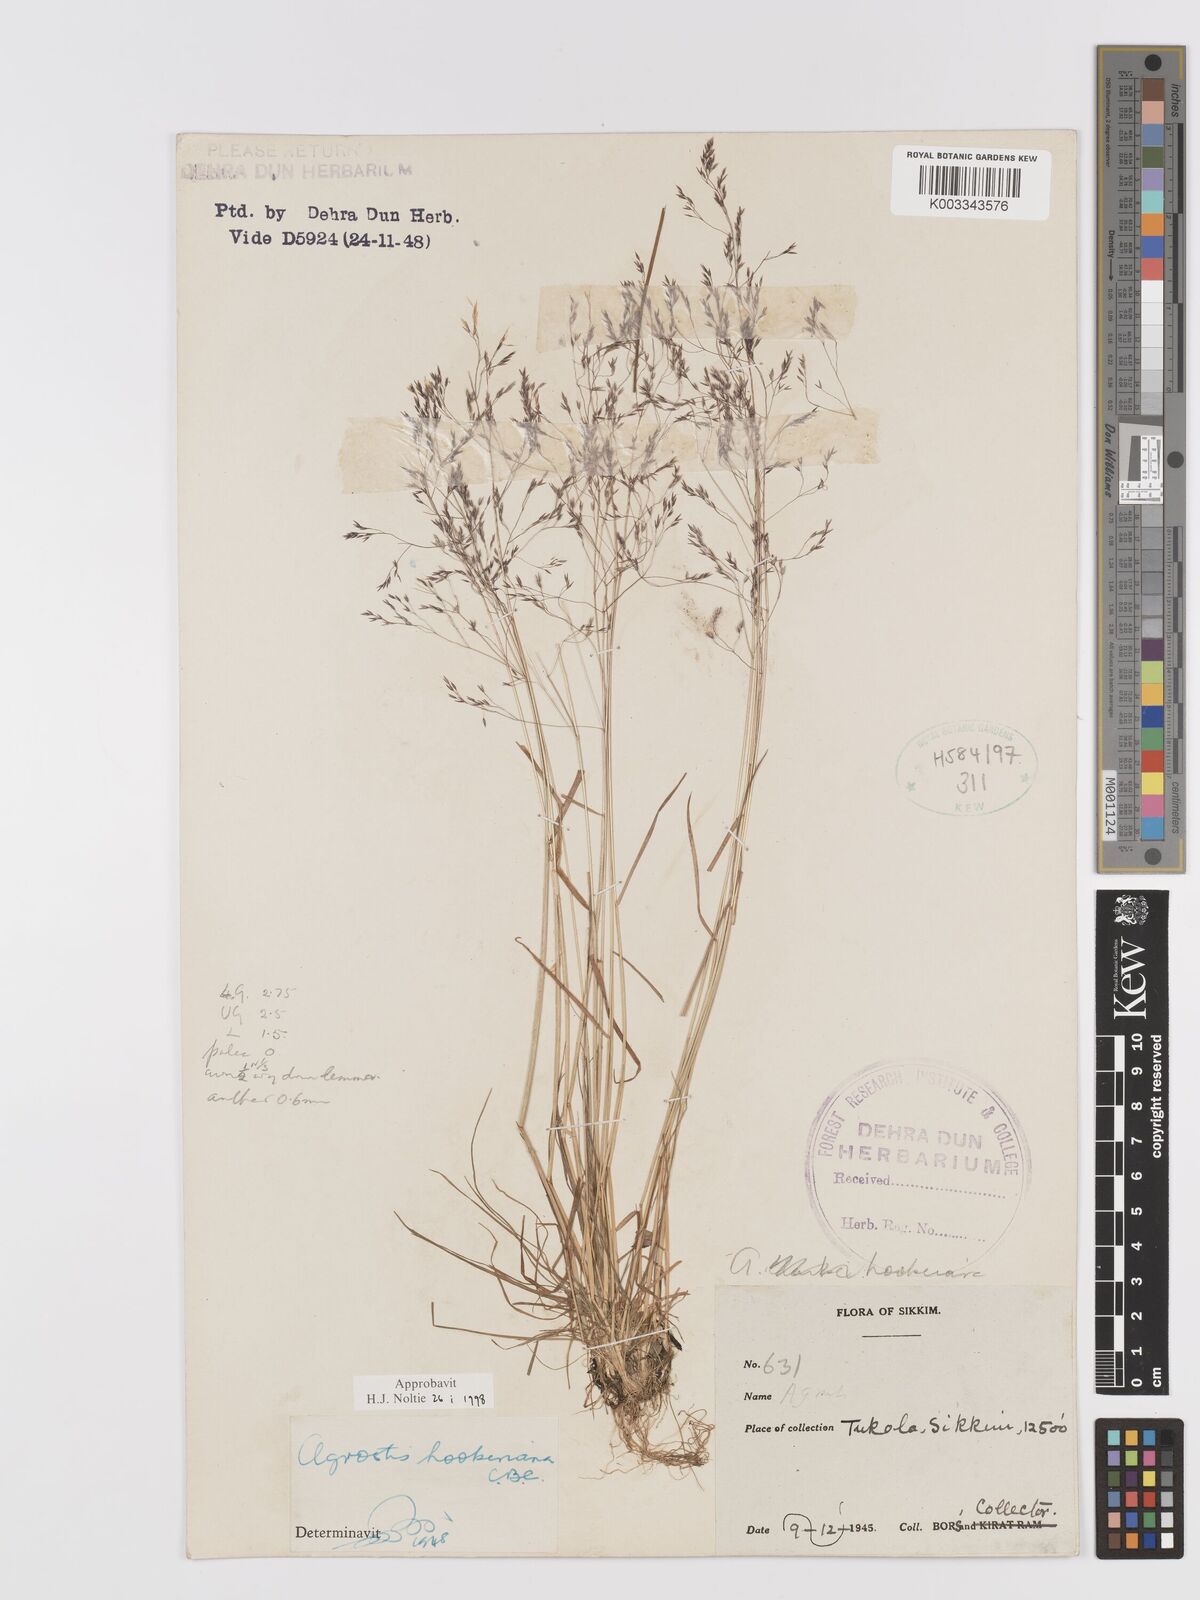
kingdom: Plantae
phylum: Tracheophyta
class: Liliopsida
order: Poales
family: Poaceae
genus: Agrostis
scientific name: Agrostis hookeriana
